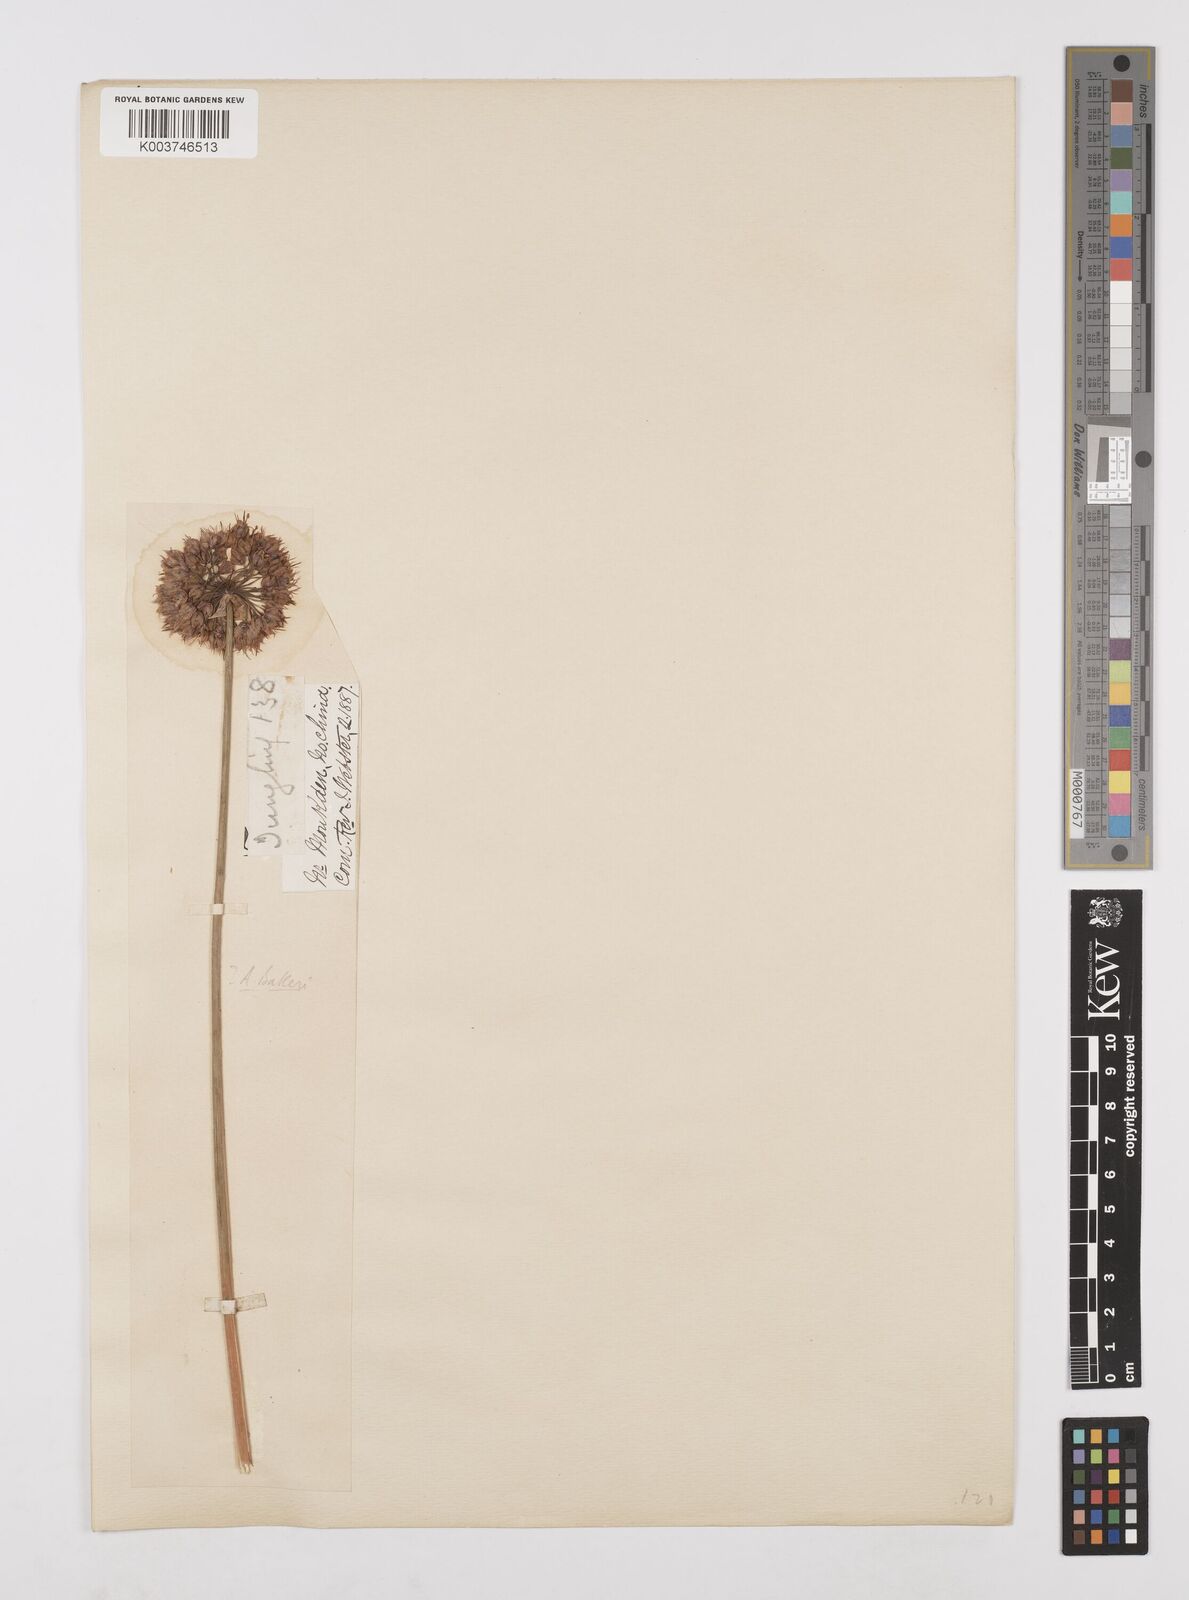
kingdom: Plantae
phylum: Tracheophyta
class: Liliopsida
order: Asparagales
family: Amaryllidaceae
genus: Allium
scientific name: Allium chinense
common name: Japanese scallion
